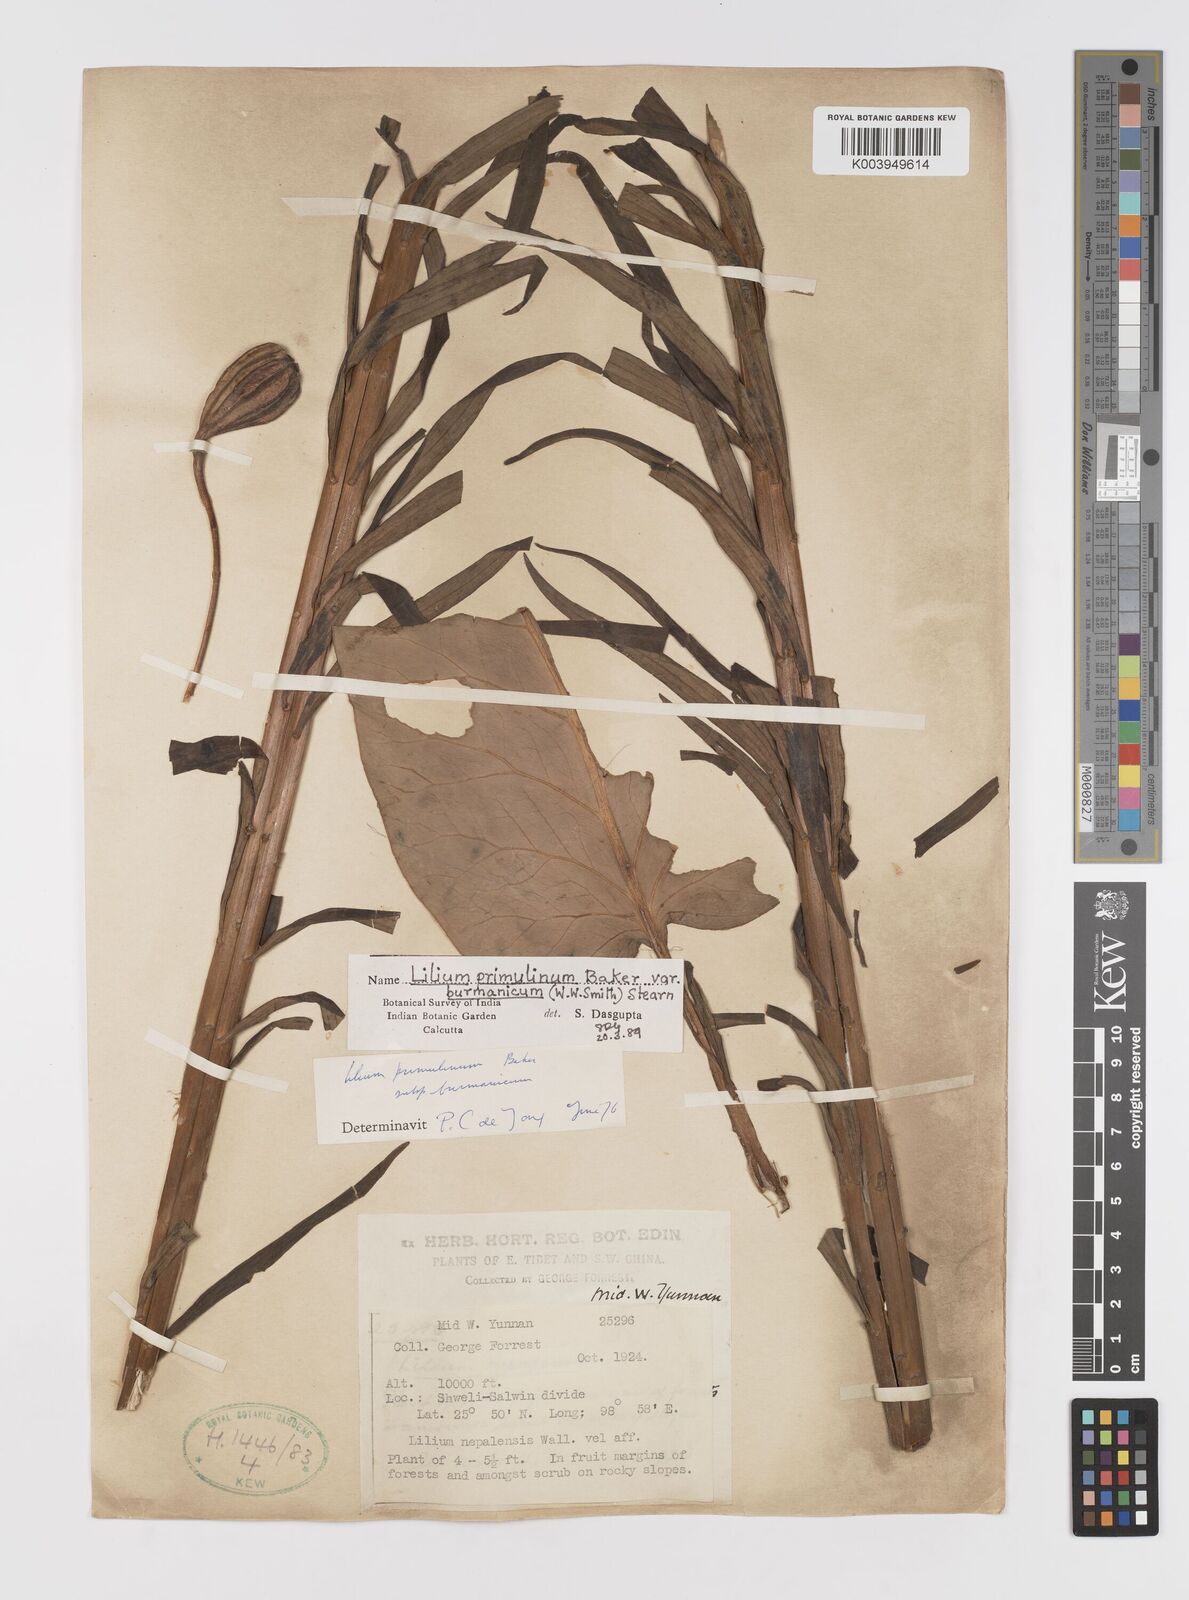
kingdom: Plantae
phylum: Tracheophyta
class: Liliopsida
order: Liliales
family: Liliaceae
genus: Lilium
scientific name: Lilium primulinum
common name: Ochre lily
